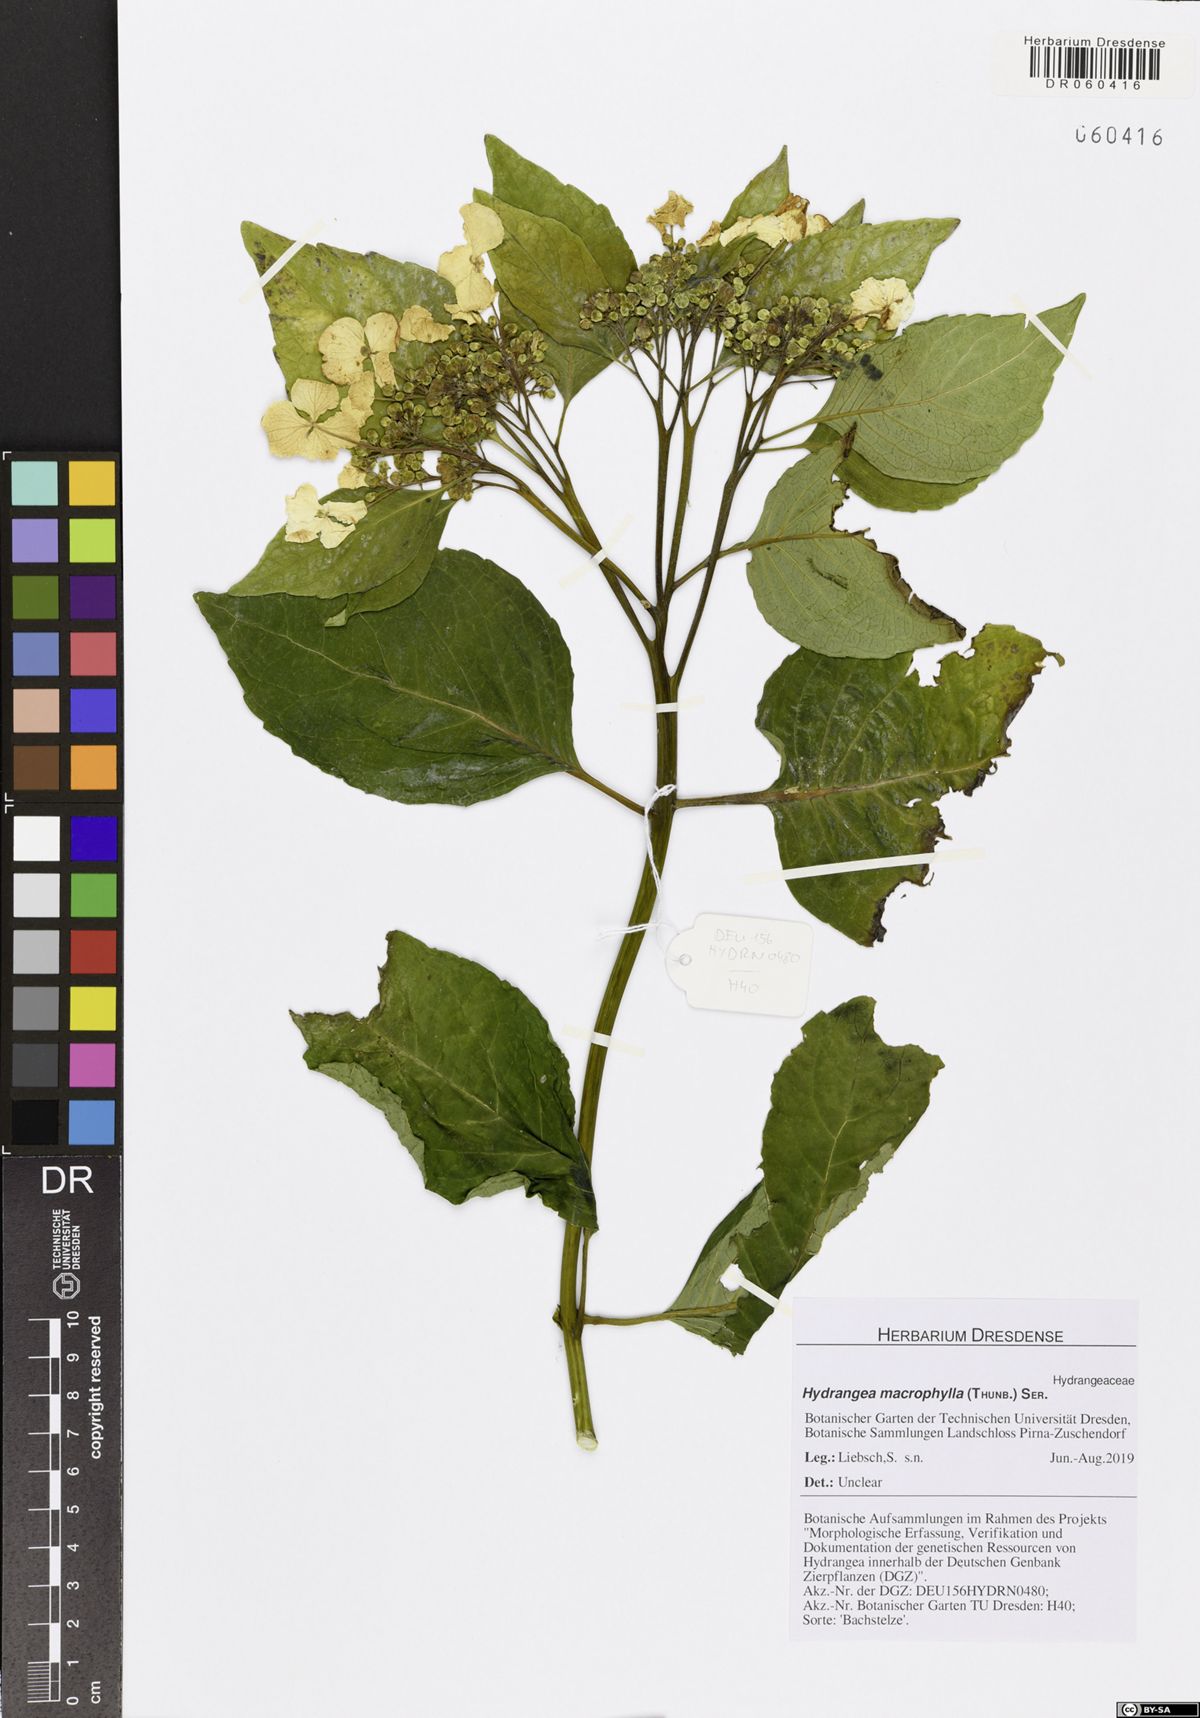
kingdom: Plantae
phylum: Tracheophyta
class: Magnoliopsida
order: Cornales
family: Hydrangeaceae
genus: Hydrangea
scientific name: Hydrangea macrophylla
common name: Hydrangea
